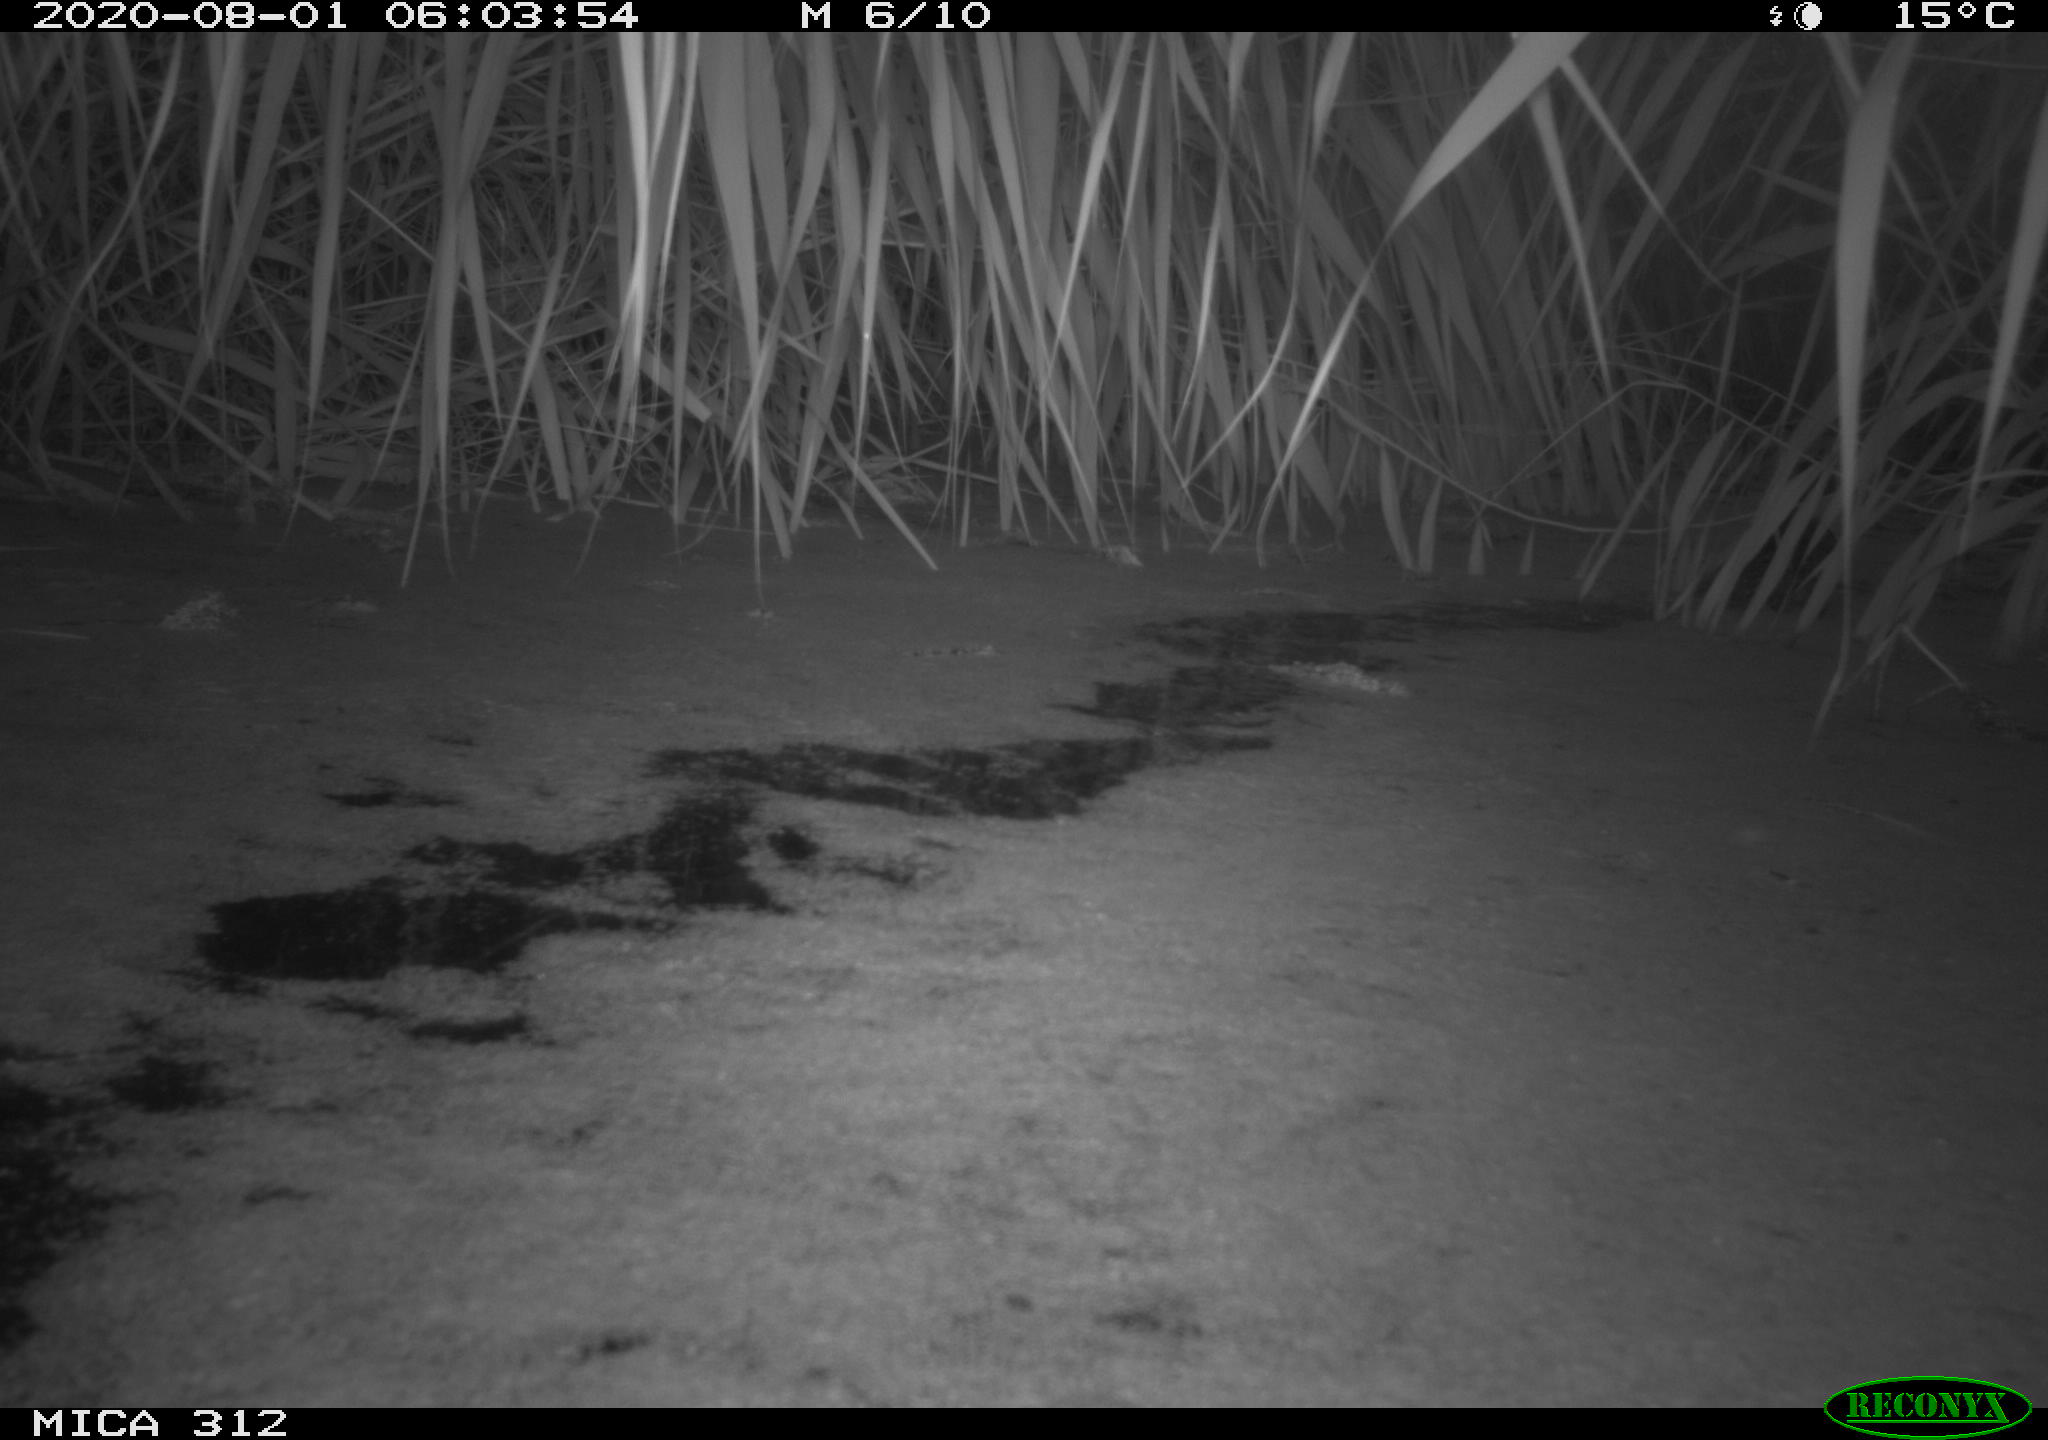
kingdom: Animalia
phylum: Chordata
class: Aves
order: Anseriformes
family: Anatidae
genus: Anas
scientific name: Anas platyrhynchos
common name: Mallard
